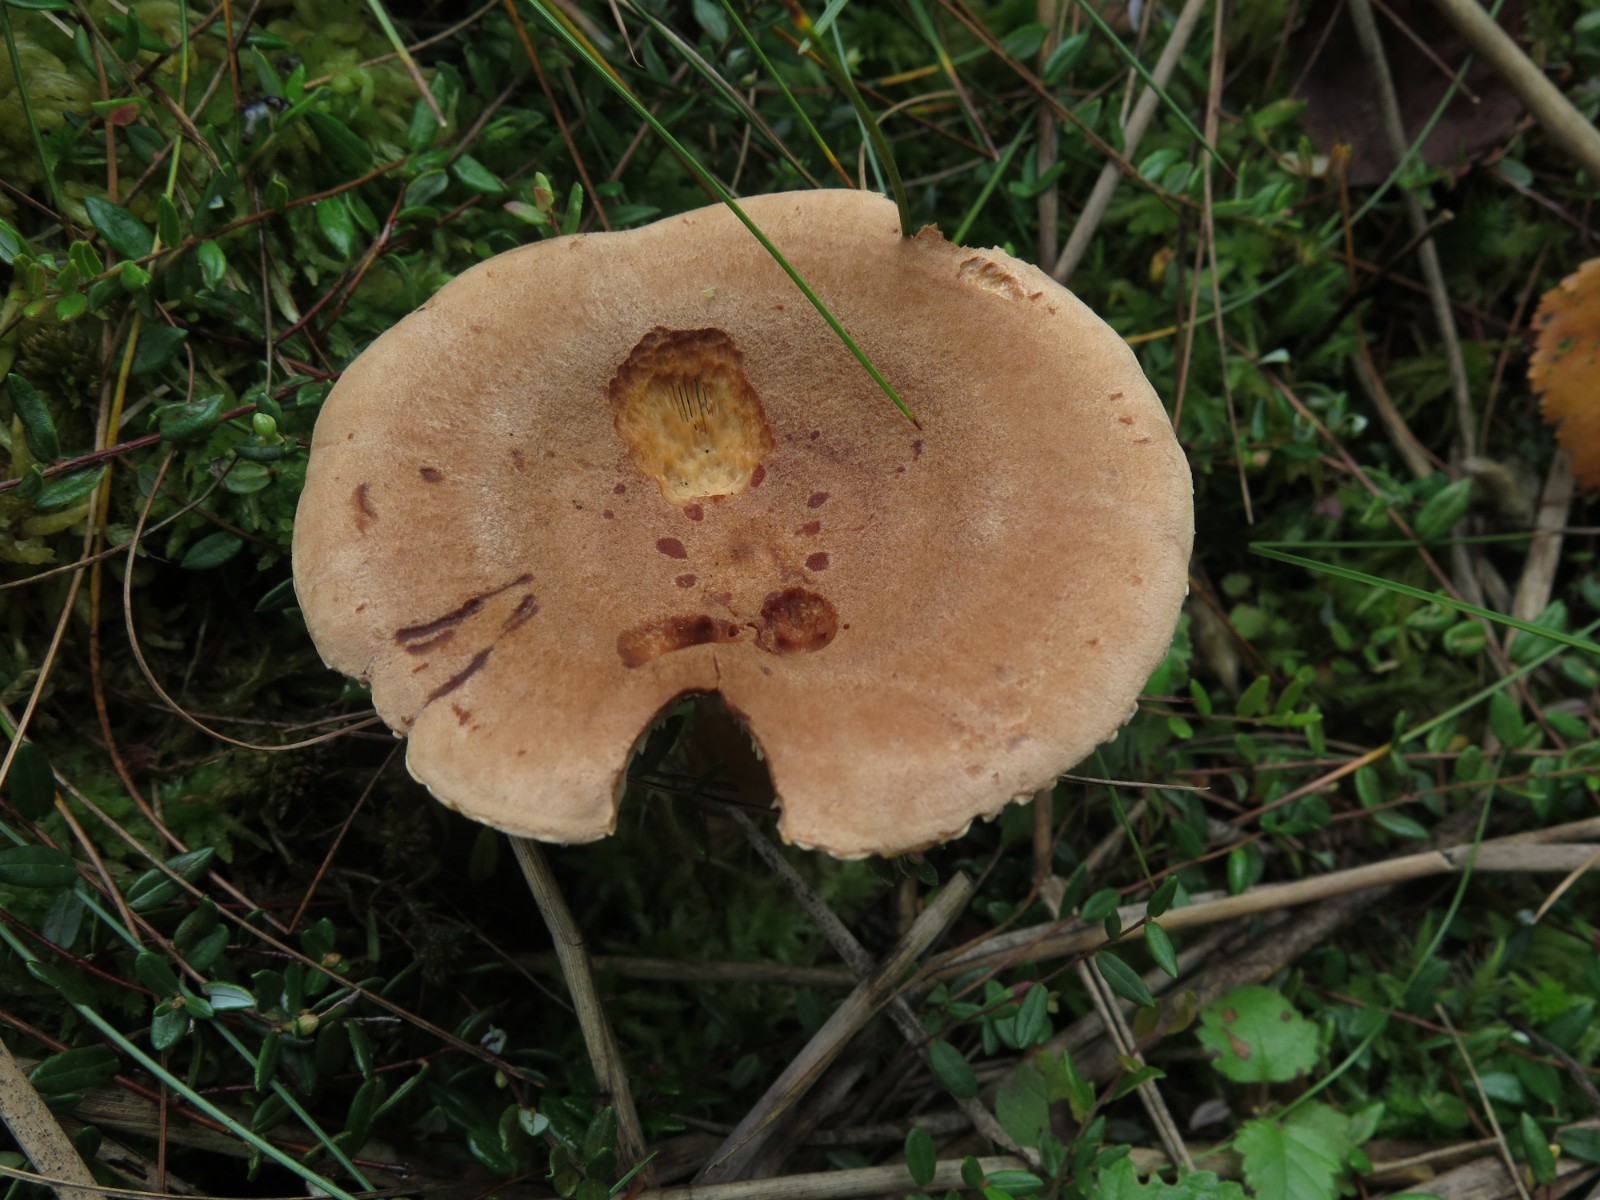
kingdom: Fungi
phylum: Basidiomycota
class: Agaricomycetes
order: Russulales
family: Russulaceae
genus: Lactarius
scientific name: Lactarius helvus
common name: mose-mælkehat
